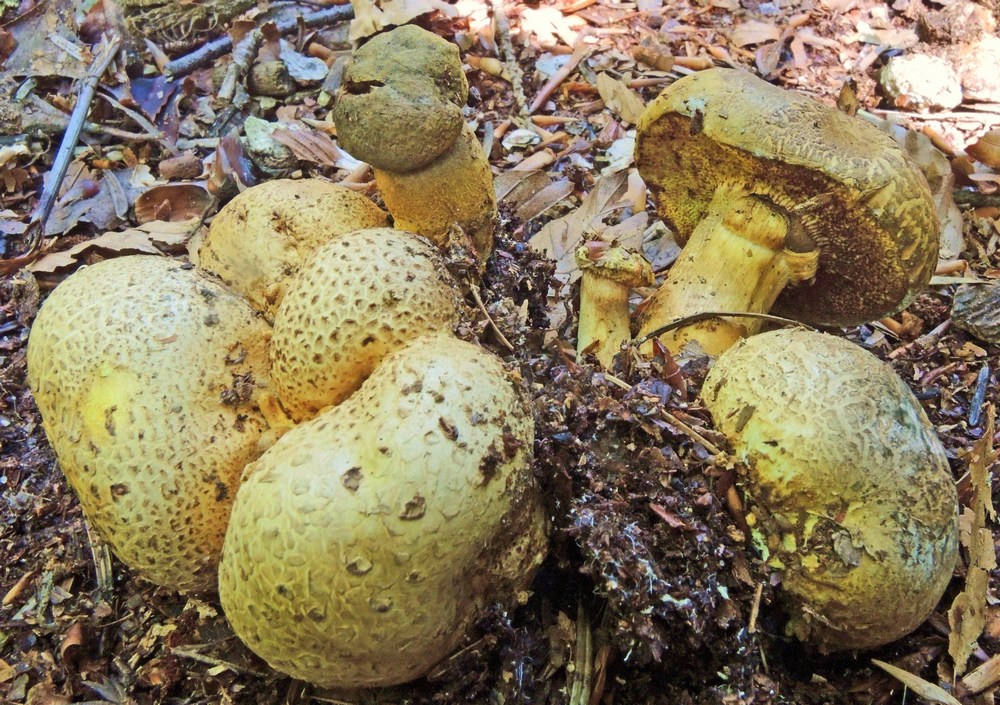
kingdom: Fungi
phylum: Basidiomycota
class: Agaricomycetes
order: Boletales
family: Boletaceae
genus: Pseudoboletus
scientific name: Pseudoboletus parasiticus
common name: snyltende rørhat
